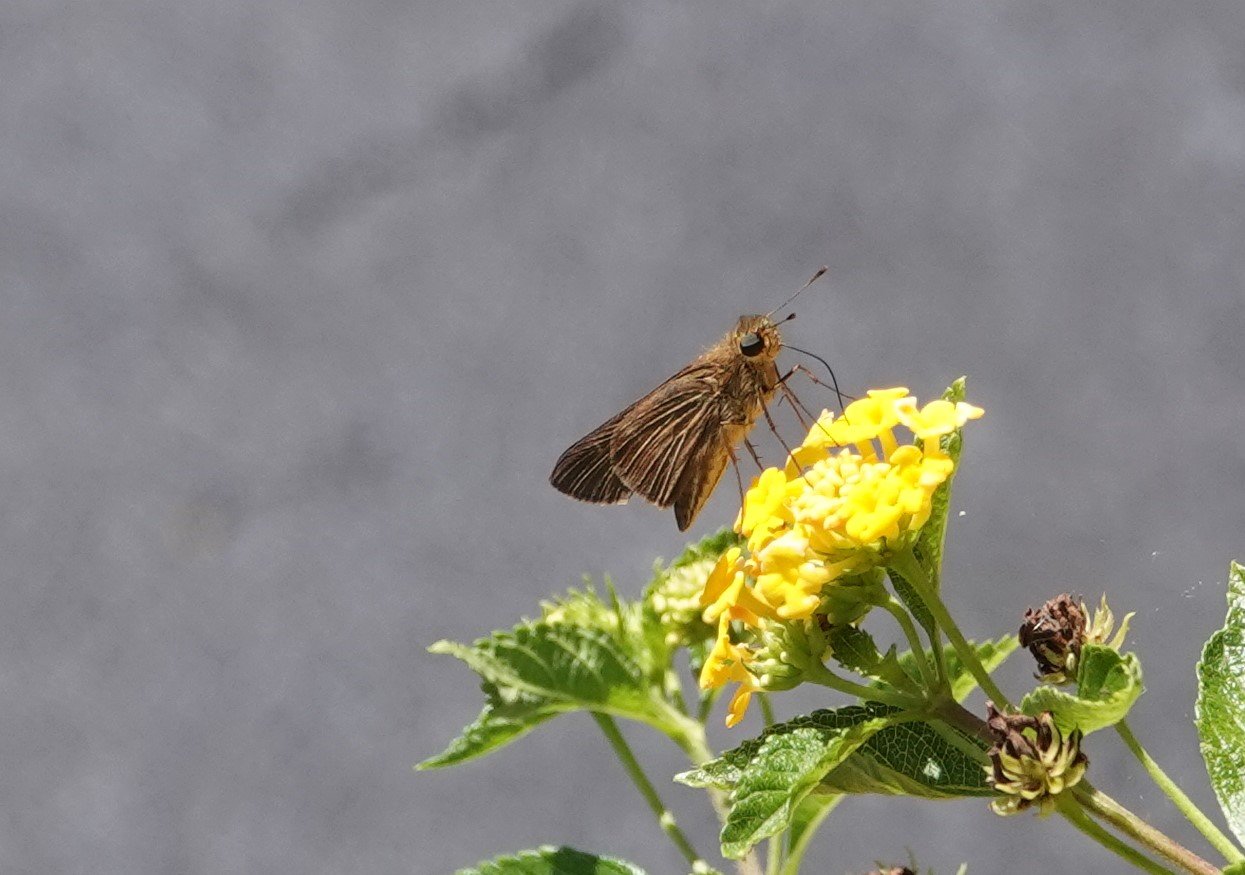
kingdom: Animalia
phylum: Arthropoda
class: Insecta
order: Lepidoptera
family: Hesperiidae
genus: Panoquina
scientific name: Panoquina ocola
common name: Ocola Skipper
